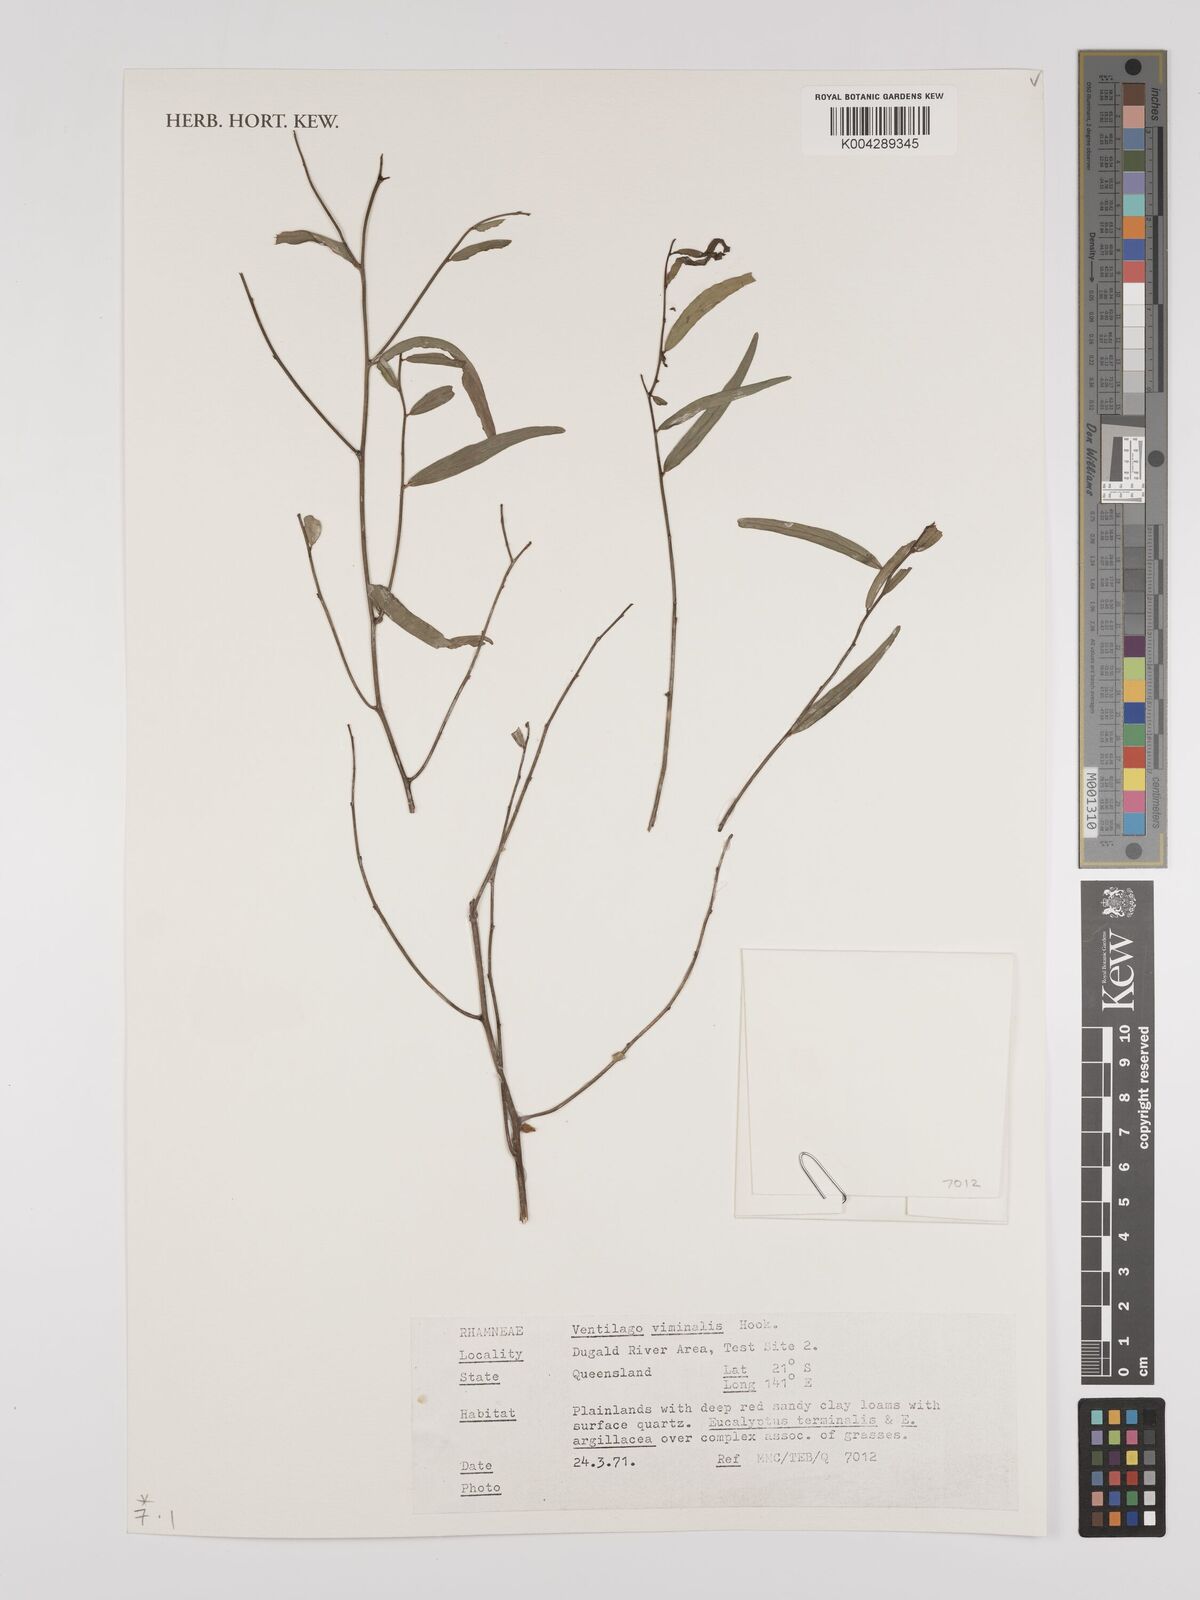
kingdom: Plantae
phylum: Tracheophyta
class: Magnoliopsida
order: Rosales
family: Rhamnaceae
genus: Ventilago
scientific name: Ventilago viminalis
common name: Medicine-bark
